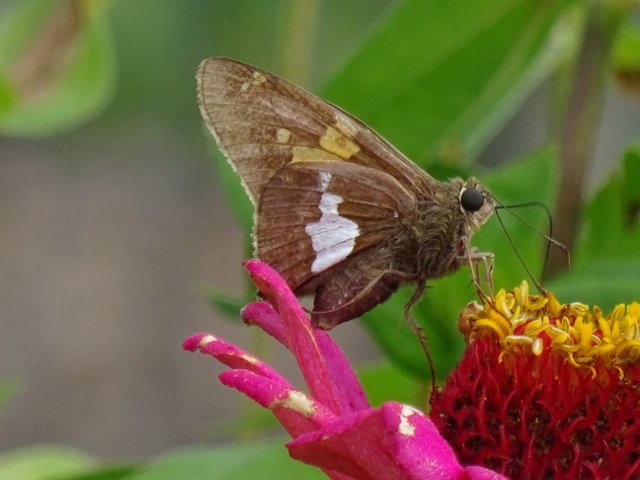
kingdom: Animalia
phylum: Arthropoda
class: Insecta
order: Lepidoptera
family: Hesperiidae
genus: Epargyreus
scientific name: Epargyreus clarus
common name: Silver-spotted Skipper
